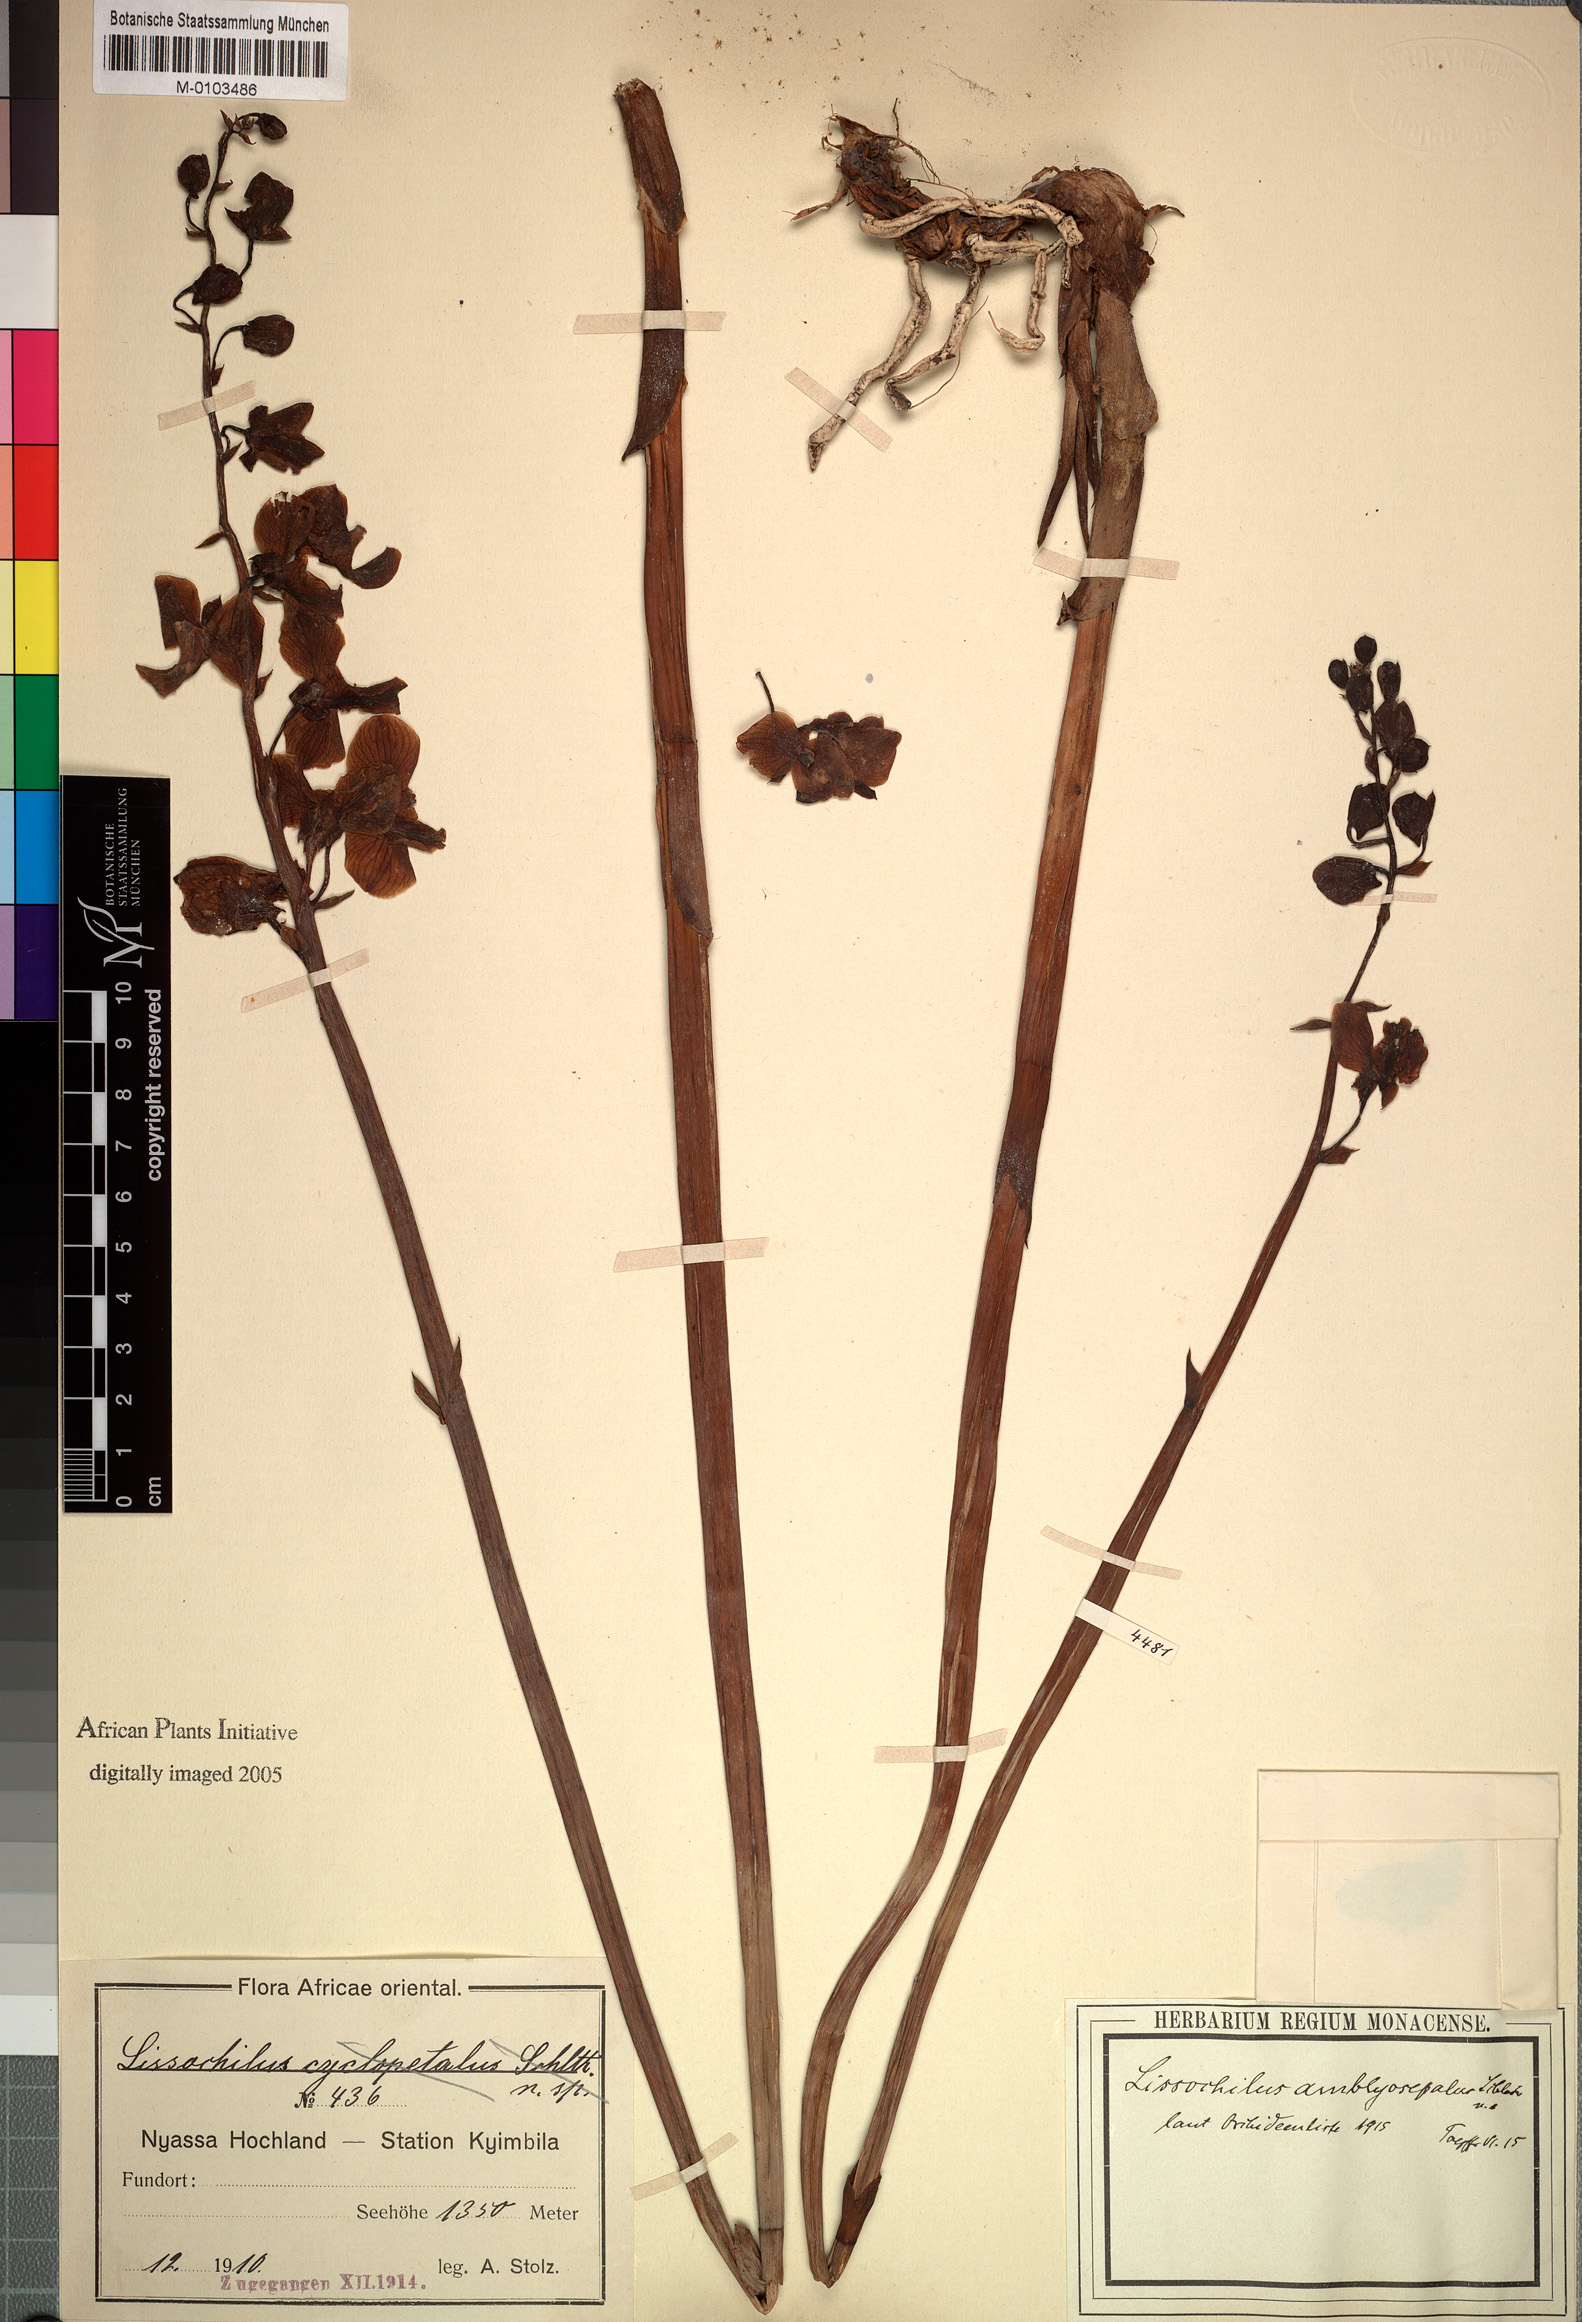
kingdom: Plantae
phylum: Tracheophyta
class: Liliopsida
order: Asparagales
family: Orchidaceae
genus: Eulophia
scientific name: Eulophia amblyosepala
